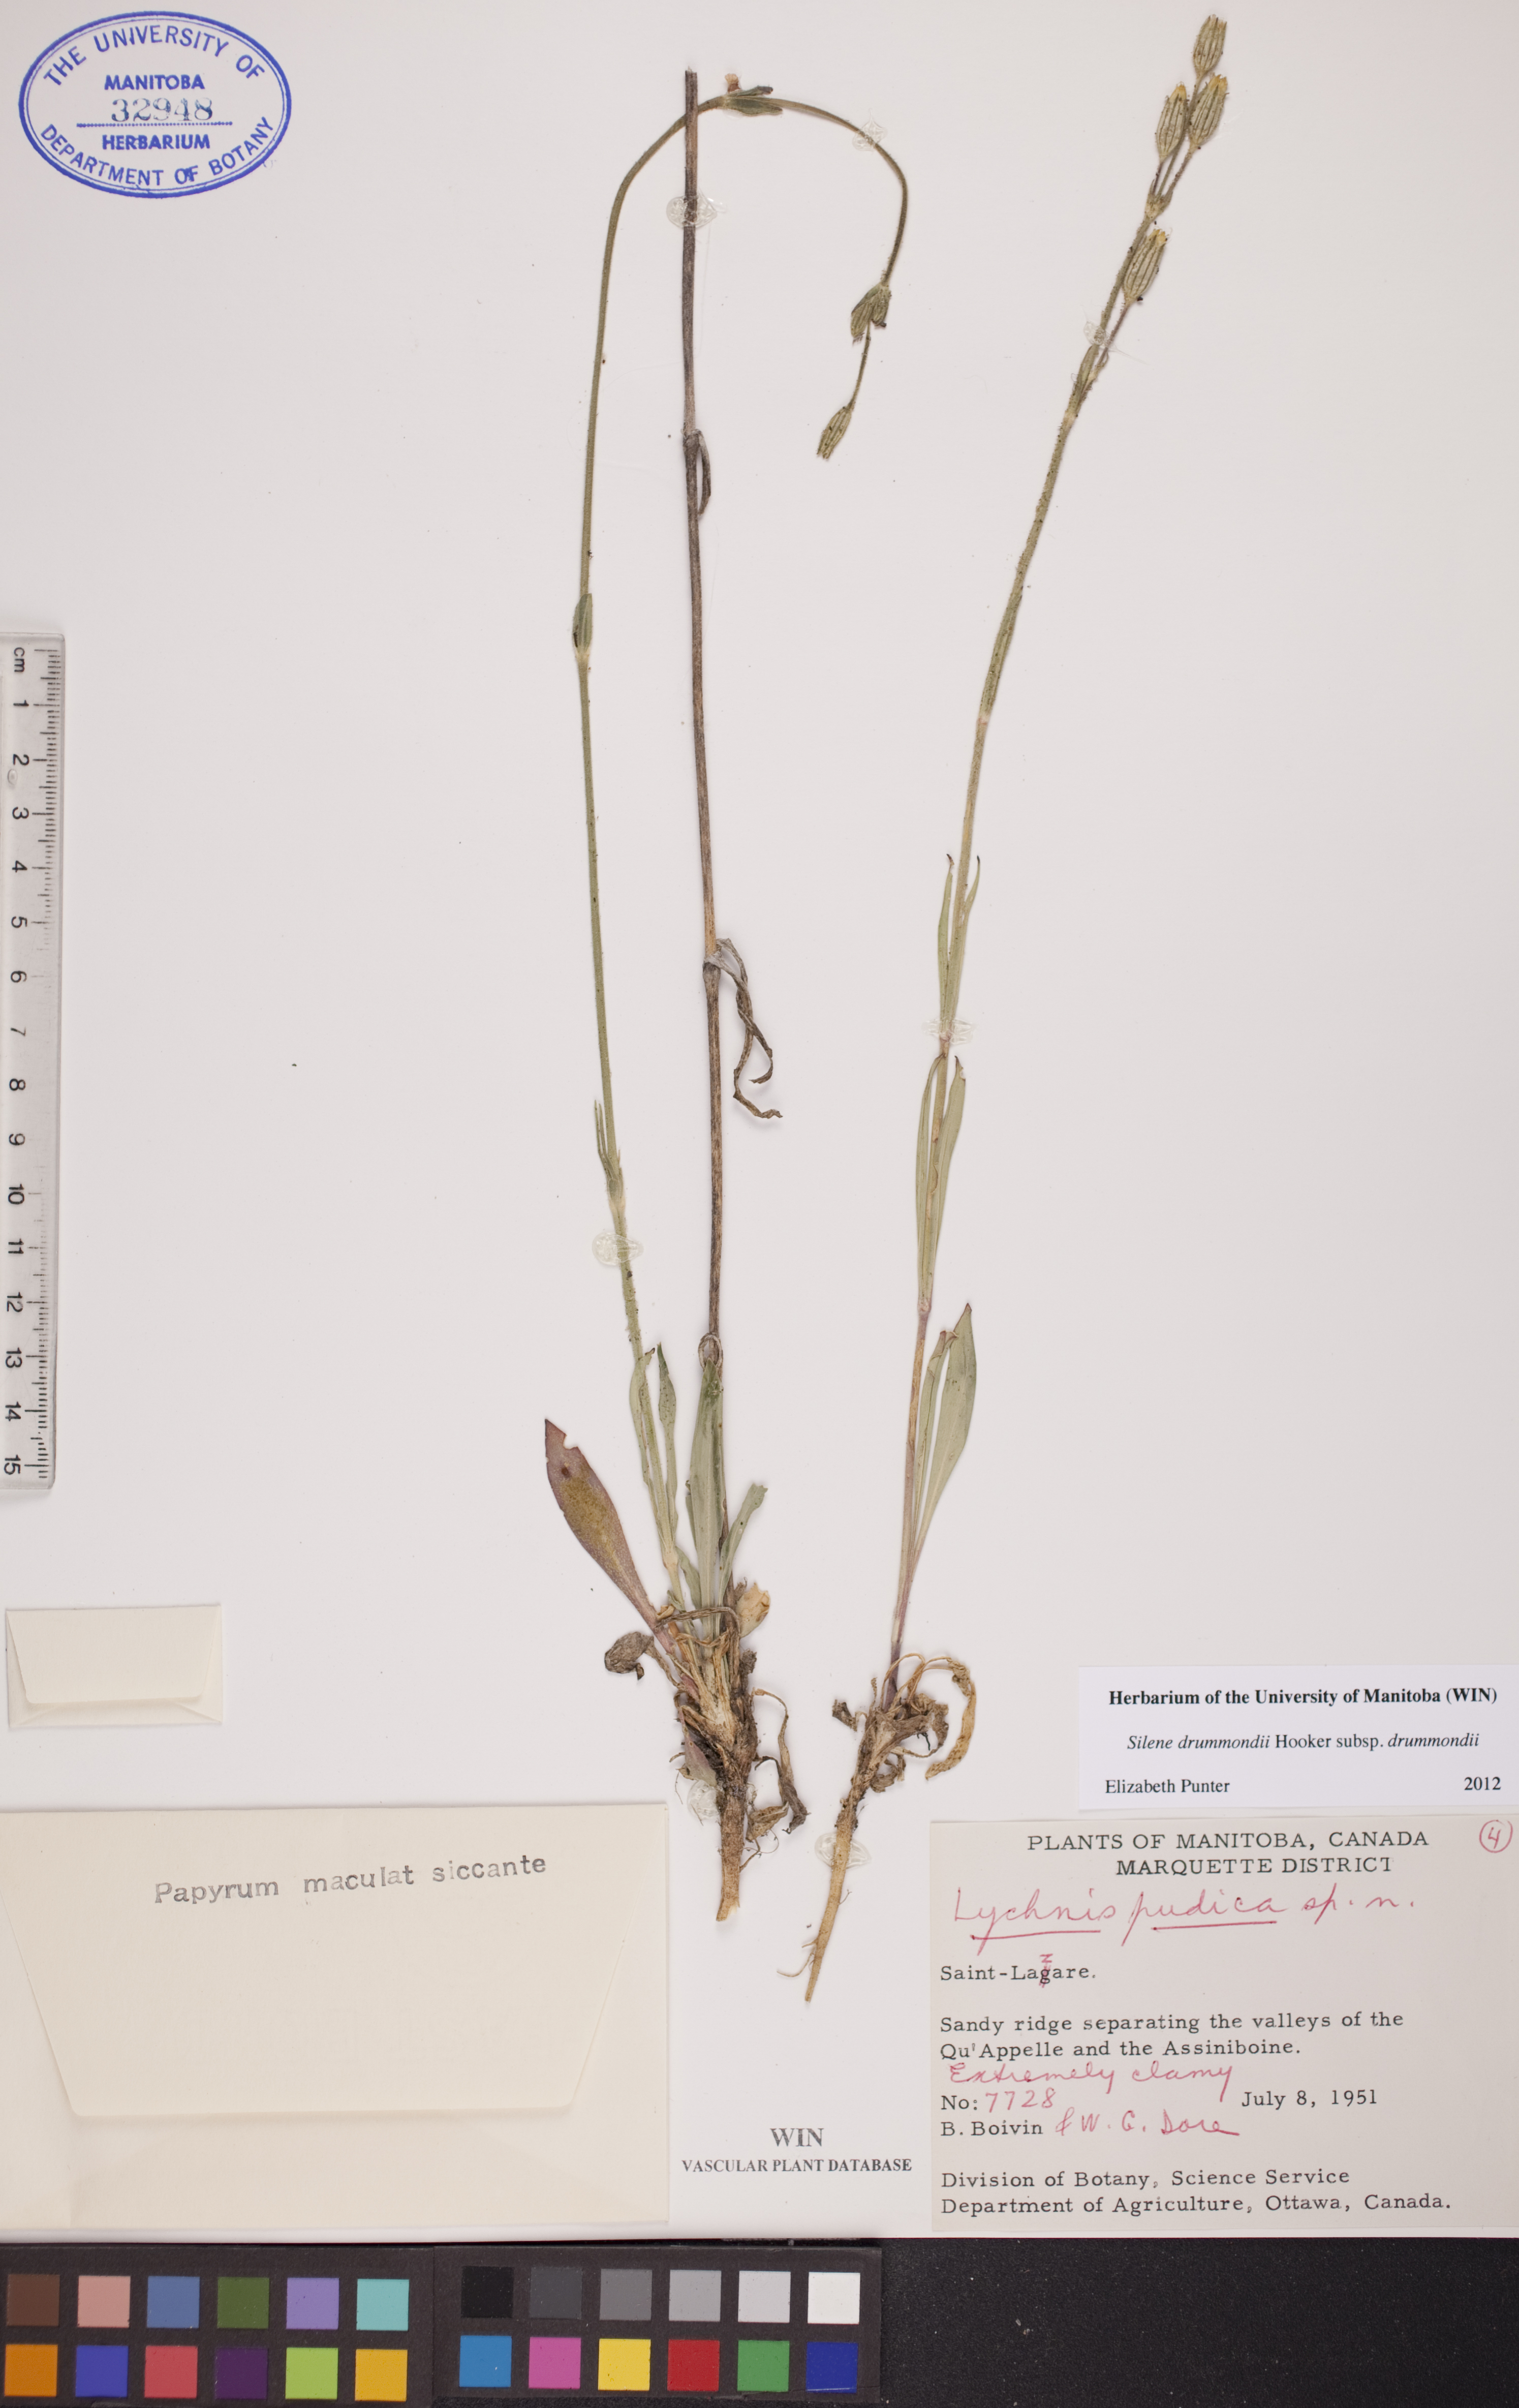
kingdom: Plantae
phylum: Tracheophyta
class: Magnoliopsida
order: Caryophyllales
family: Caryophyllaceae
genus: Silene
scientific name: Silene drummondii
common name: Drummond's catchfly
